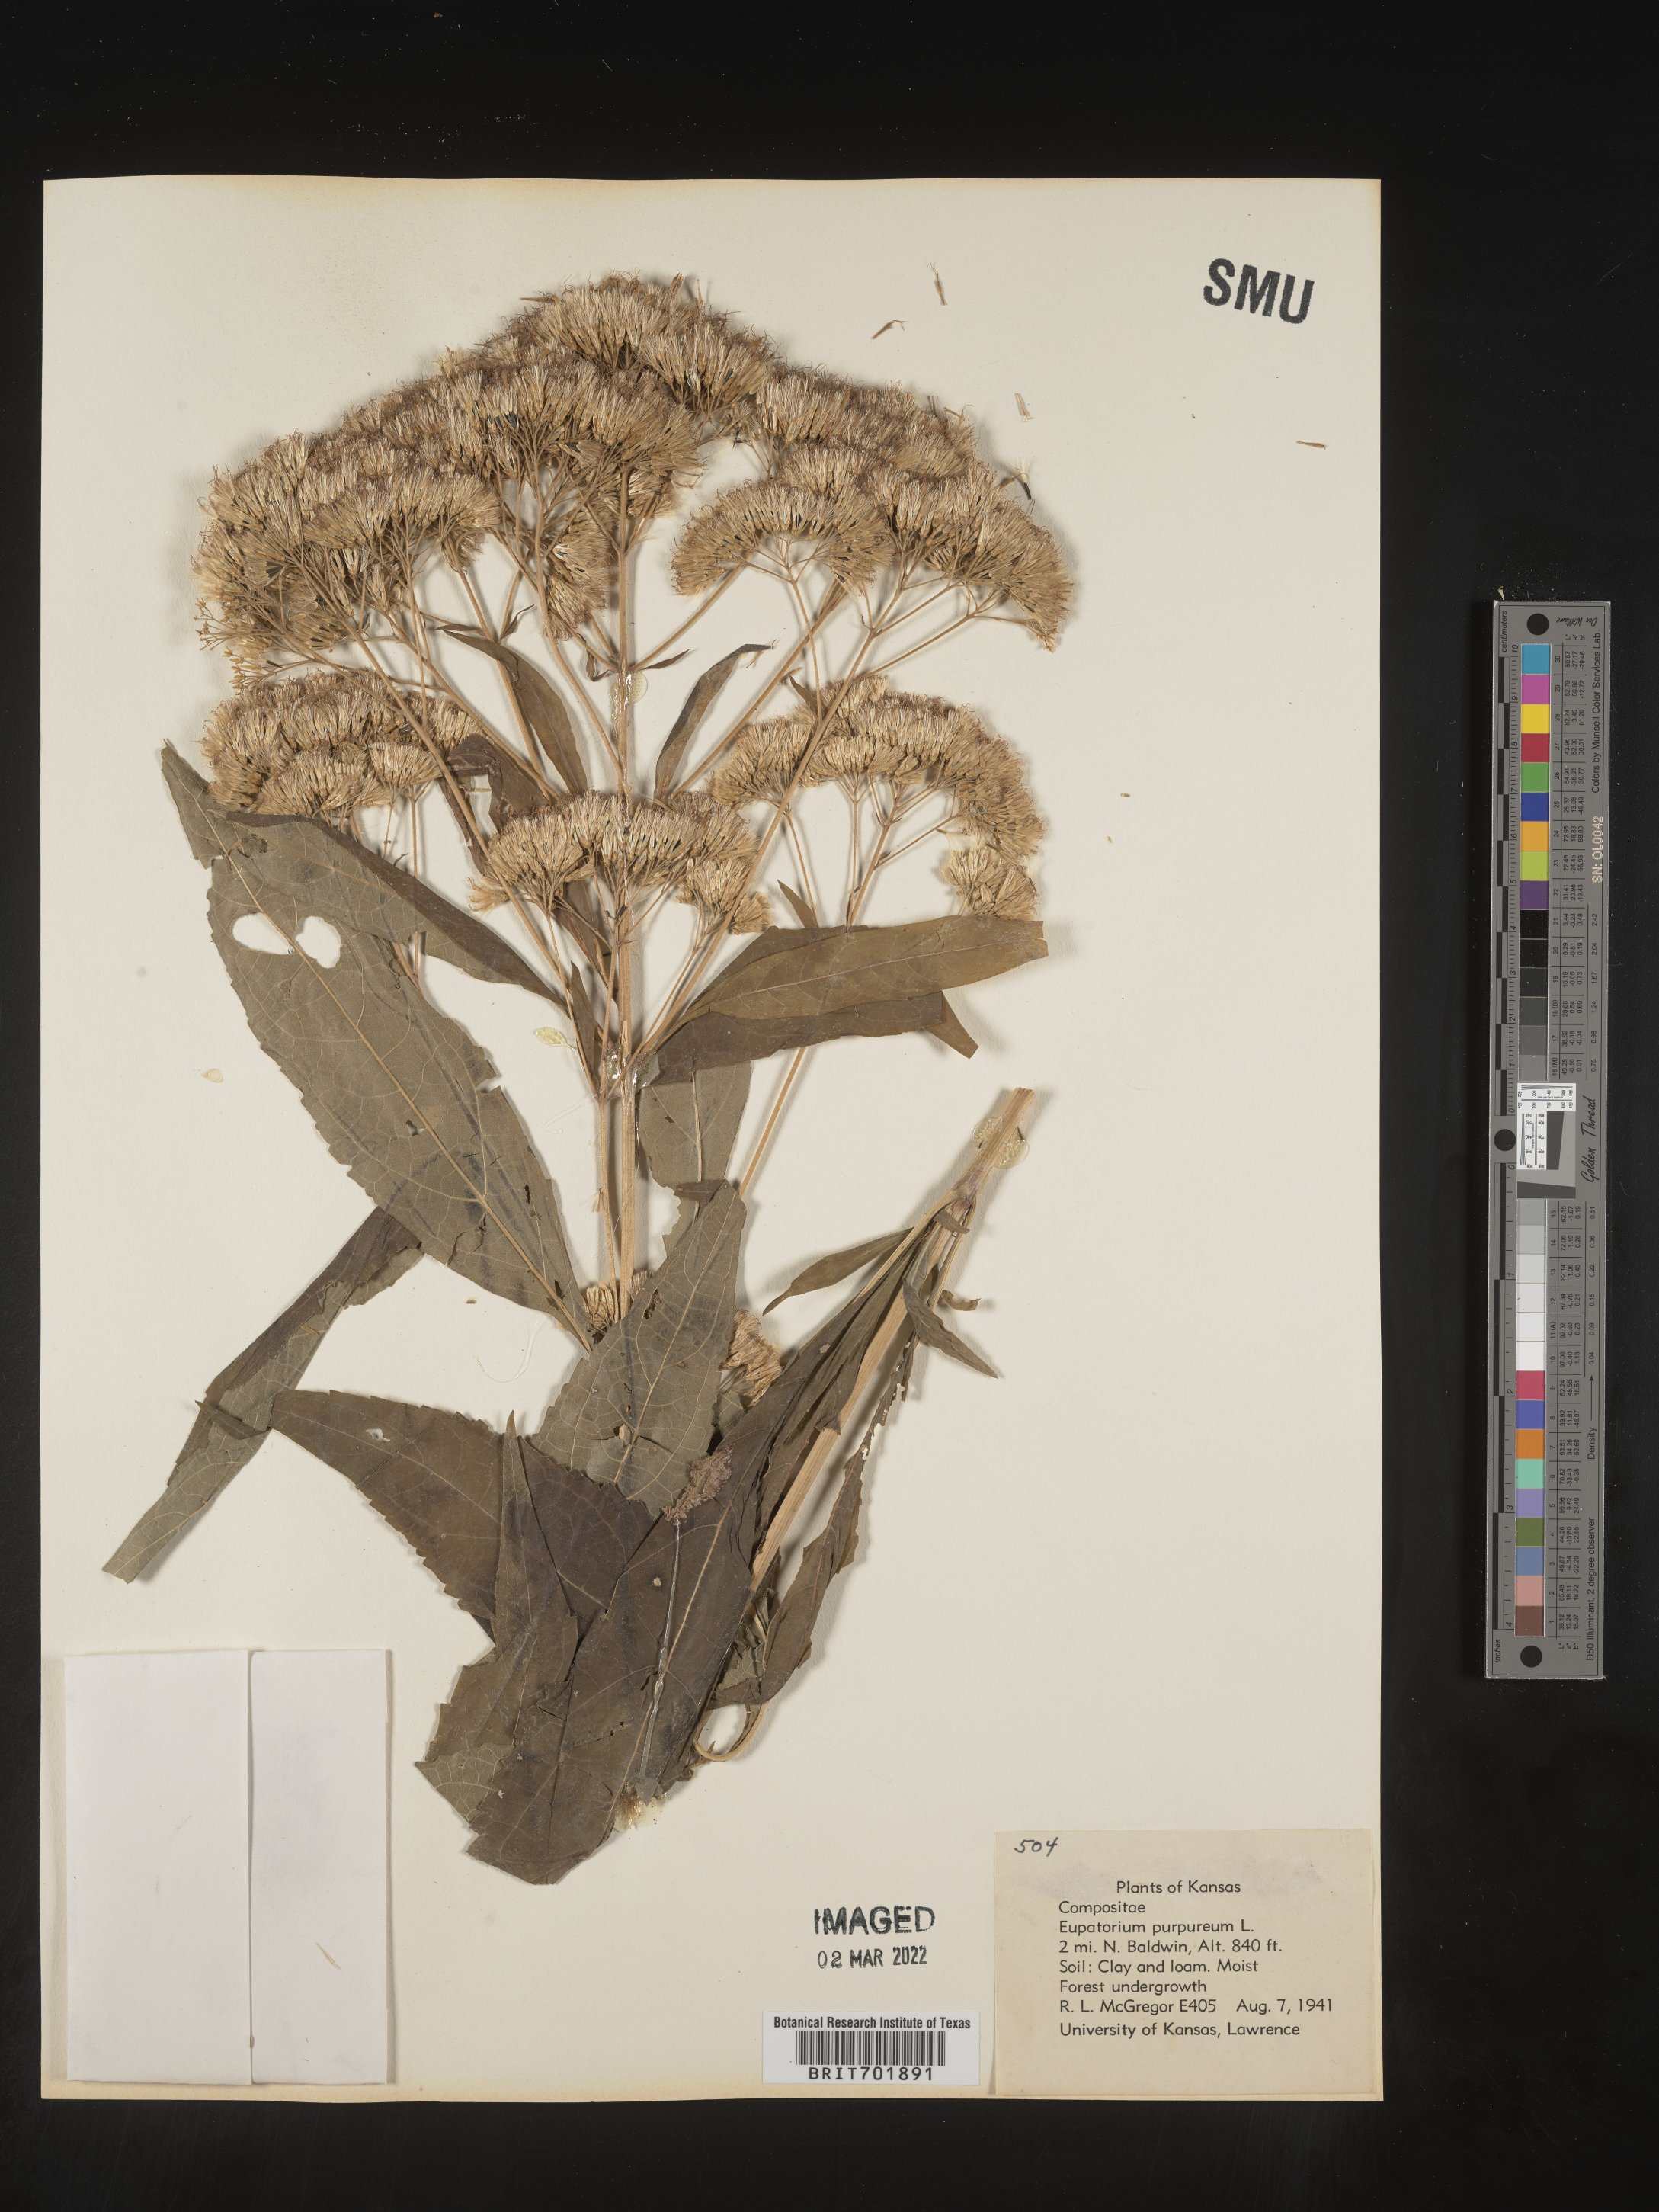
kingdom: Plantae
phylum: Tracheophyta
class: Magnoliopsida
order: Asterales
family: Asteraceae
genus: Eupatorium
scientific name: Eupatorium quaternum
